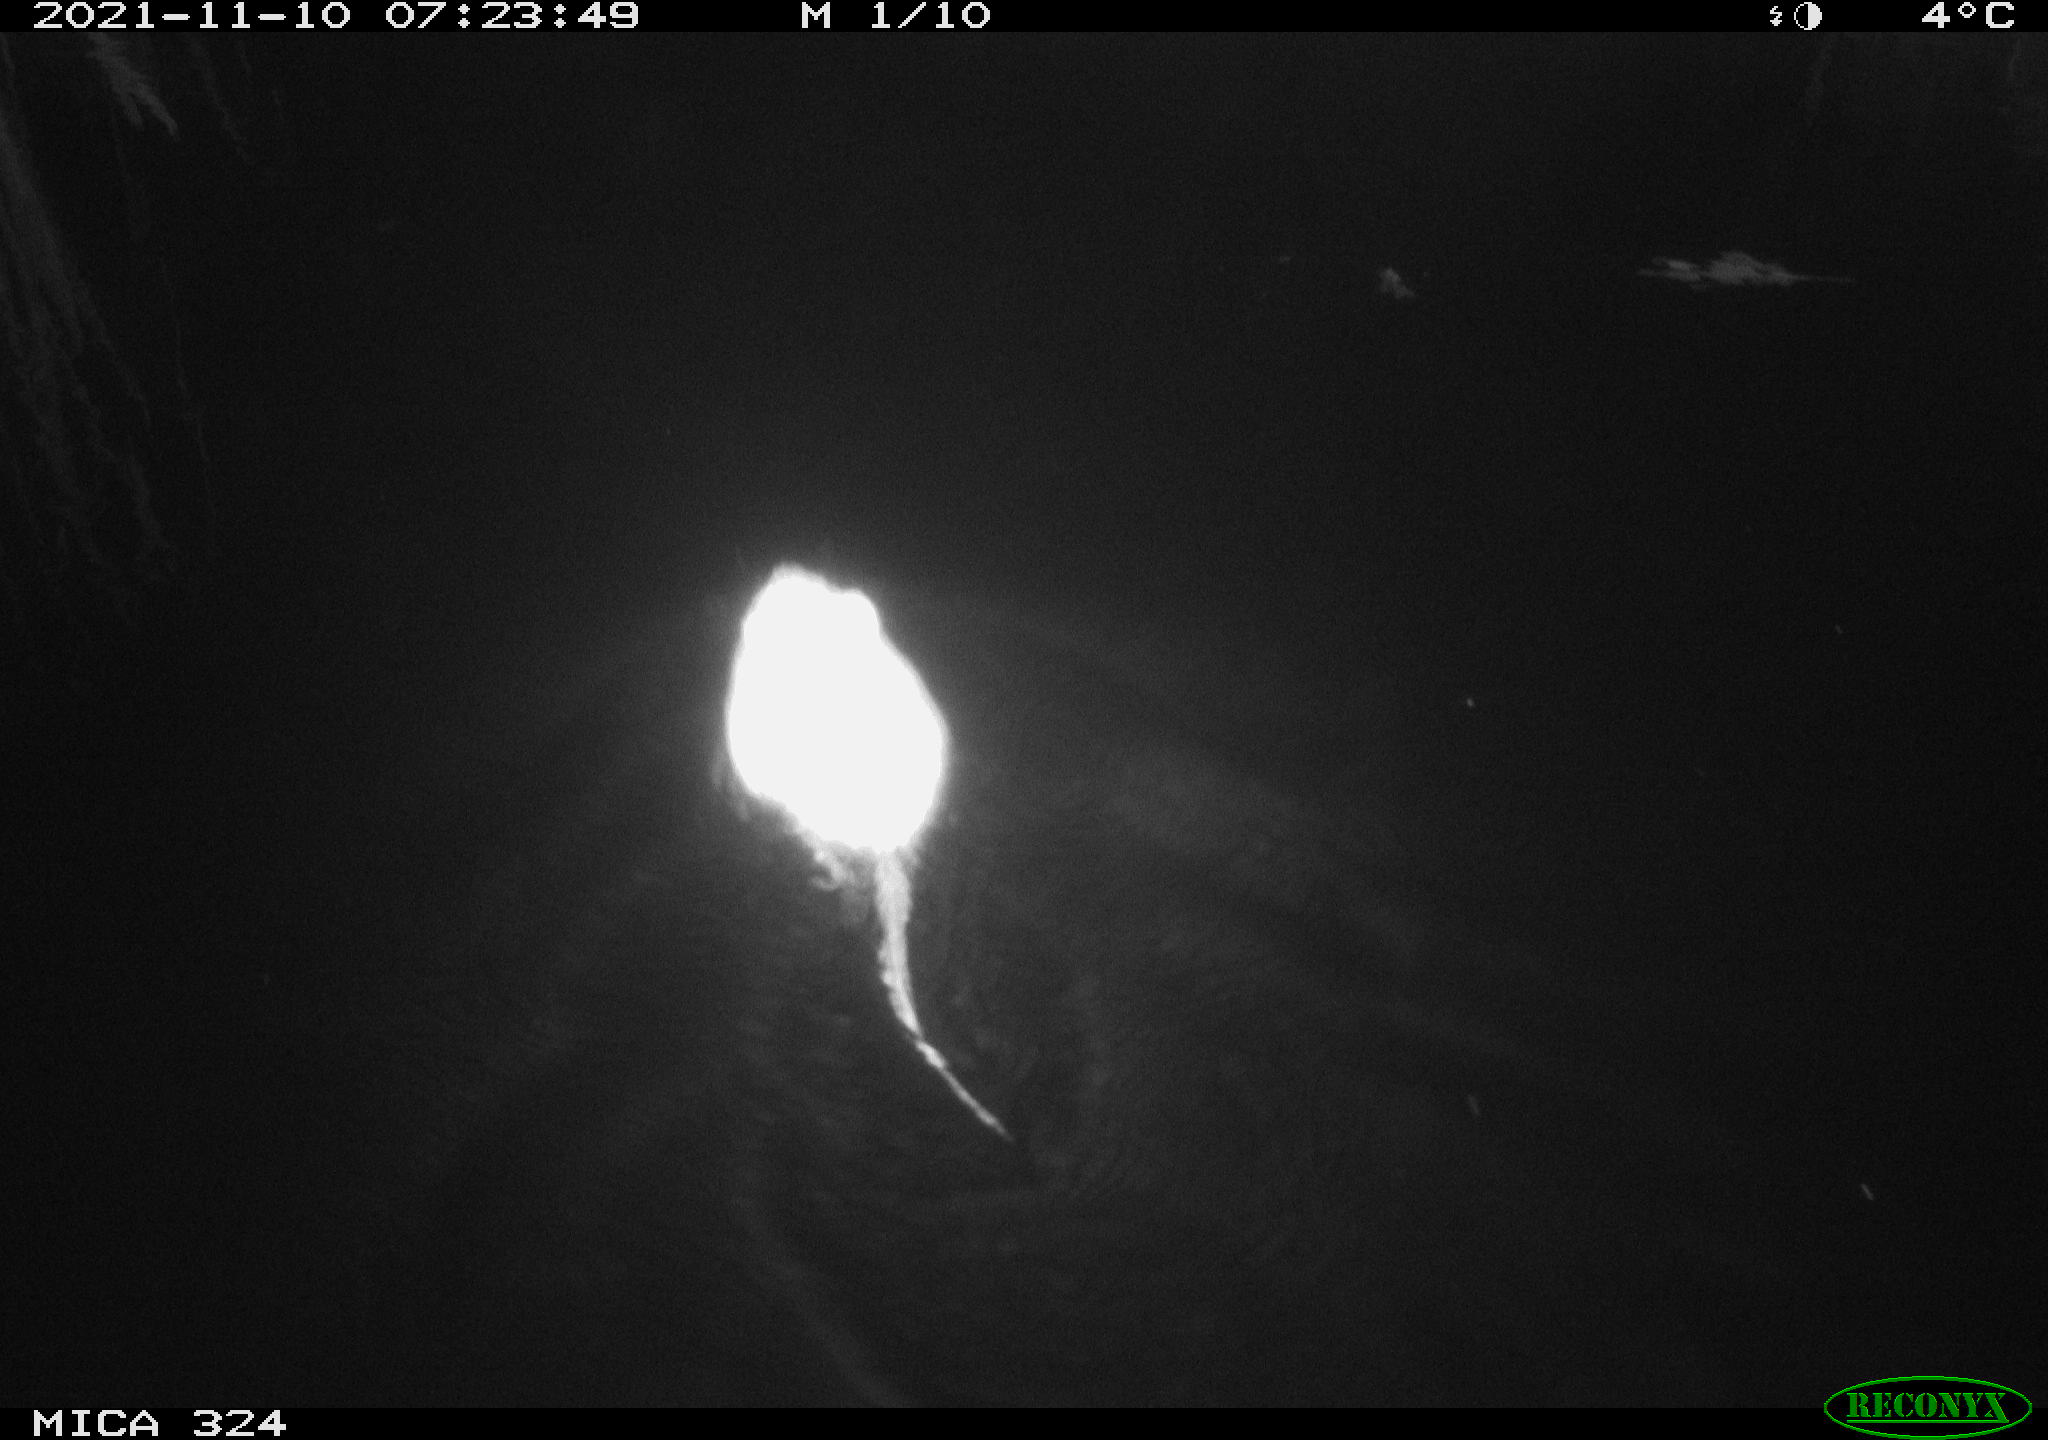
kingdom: Animalia
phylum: Chordata
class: Mammalia
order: Rodentia
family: Cricetidae
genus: Ondatra
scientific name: Ondatra zibethicus
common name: Muskrat
